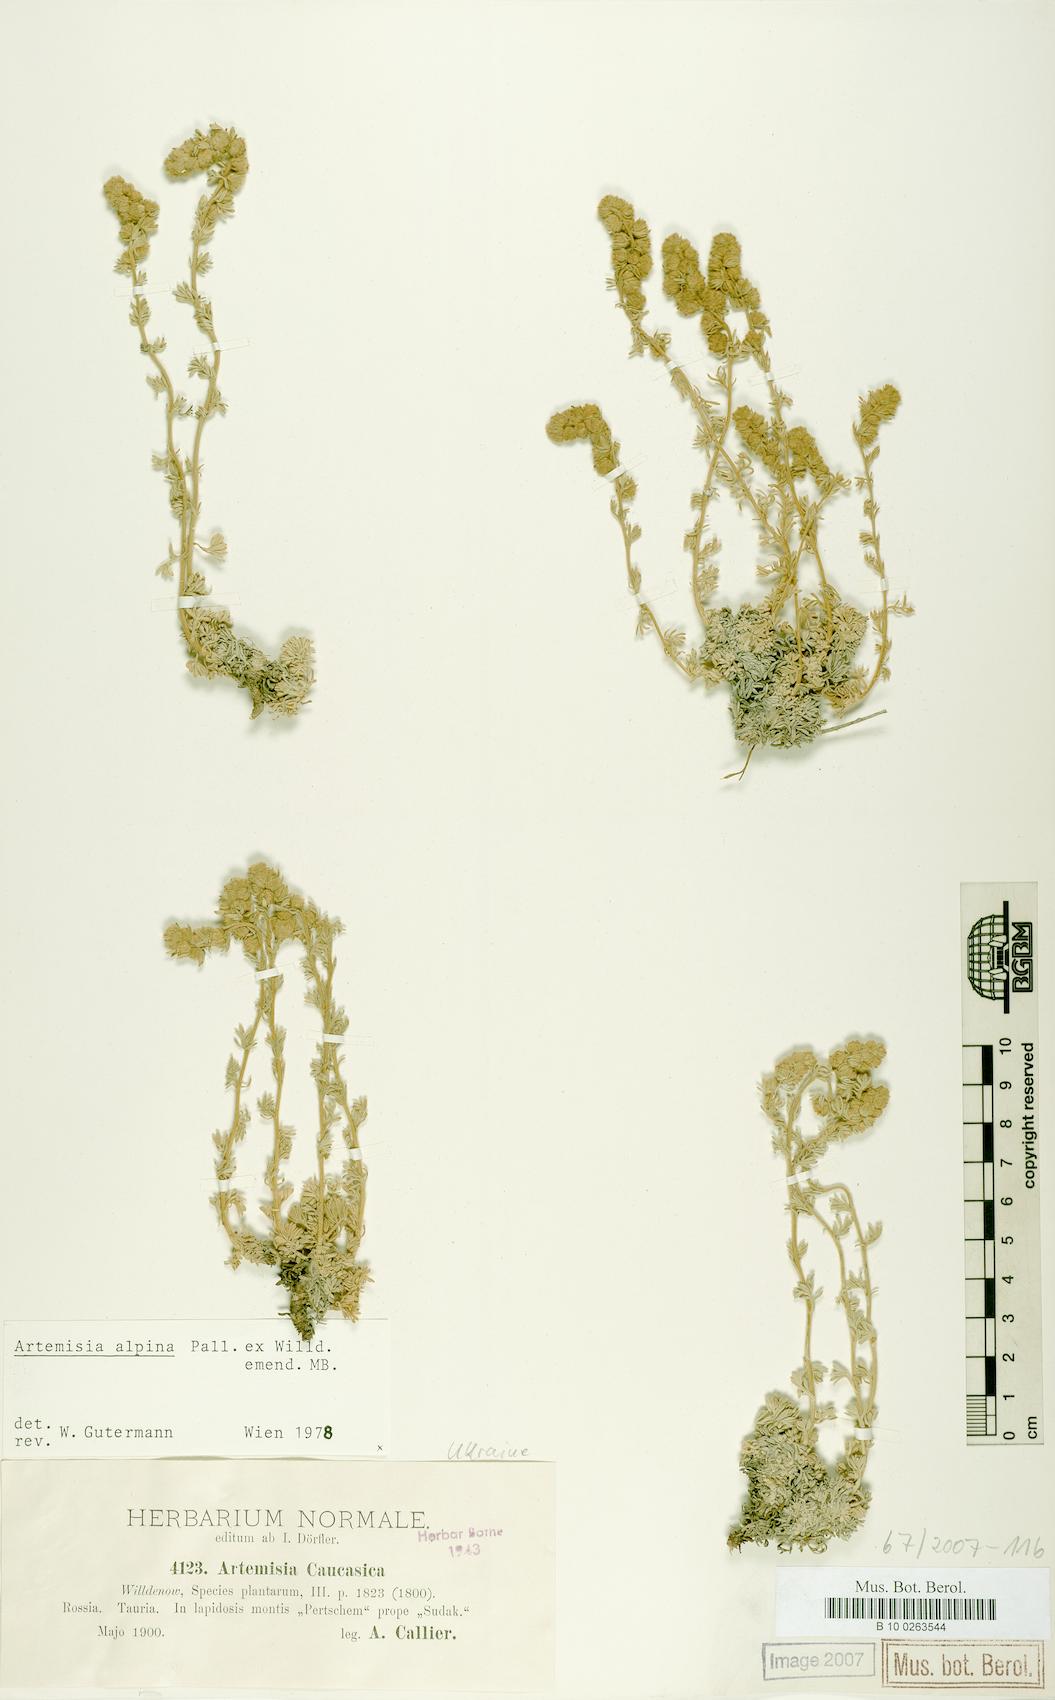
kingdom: Plantae
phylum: Tracheophyta
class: Magnoliopsida
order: Asterales
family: Asteraceae
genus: Artemisia
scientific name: Artemisia alpina
